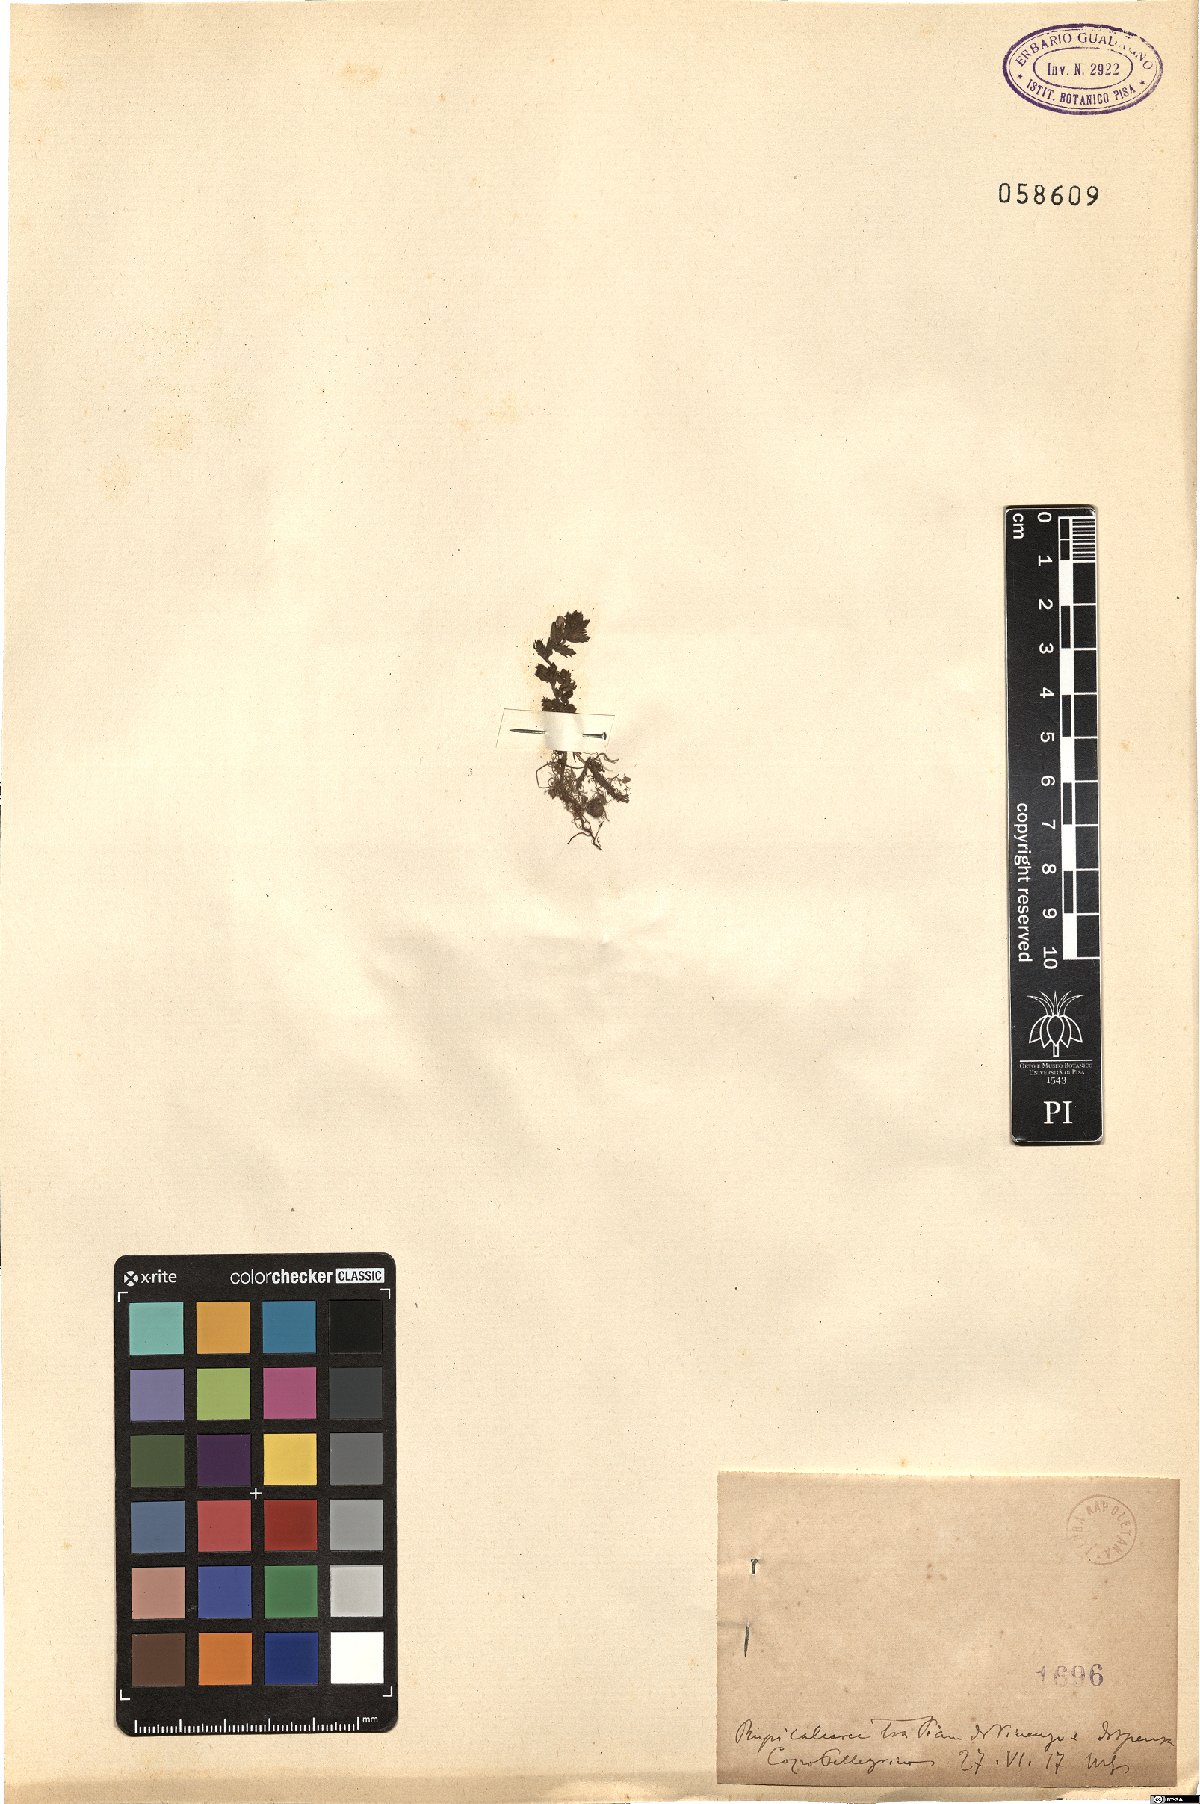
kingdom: Plantae
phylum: Tracheophyta
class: Magnoliopsida
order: Lamiales
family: Orobanchaceae
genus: Euphrasia
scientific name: Euphrasia
